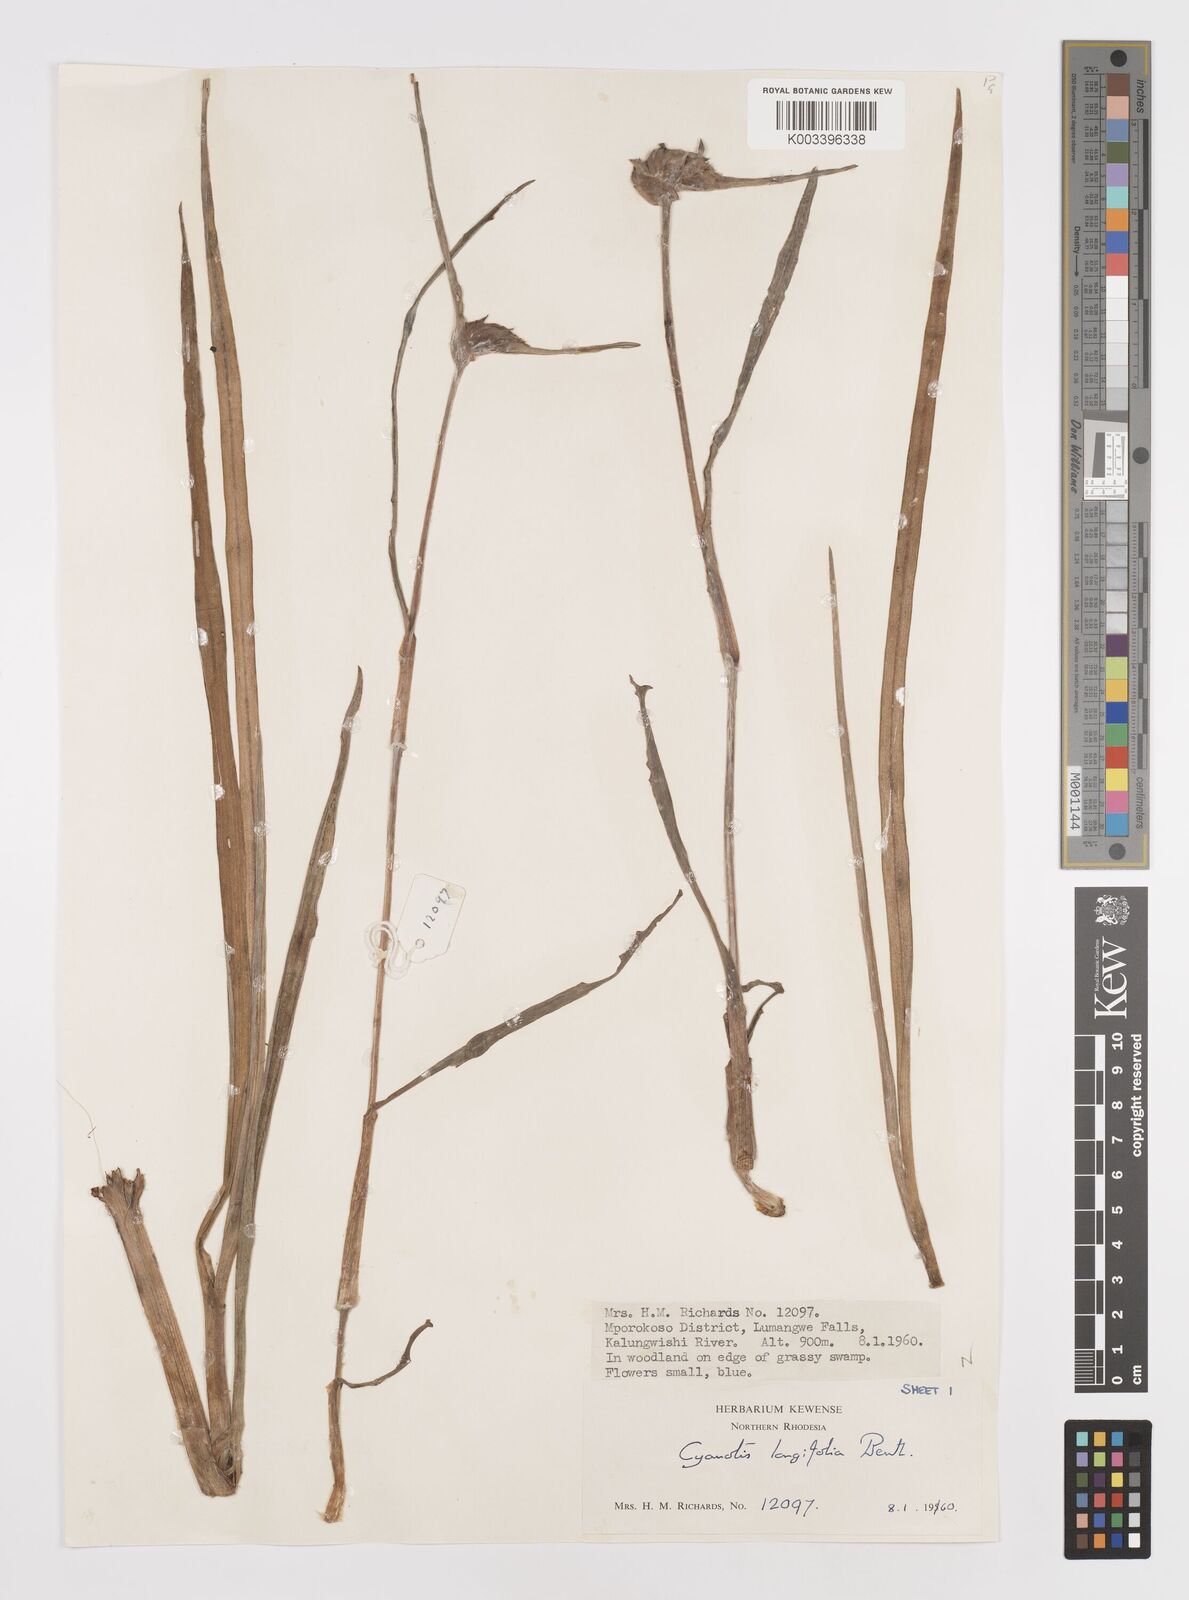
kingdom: Plantae
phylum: Tracheophyta
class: Liliopsida
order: Commelinales
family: Commelinaceae
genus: Cyanotis
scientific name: Cyanotis longifolia
